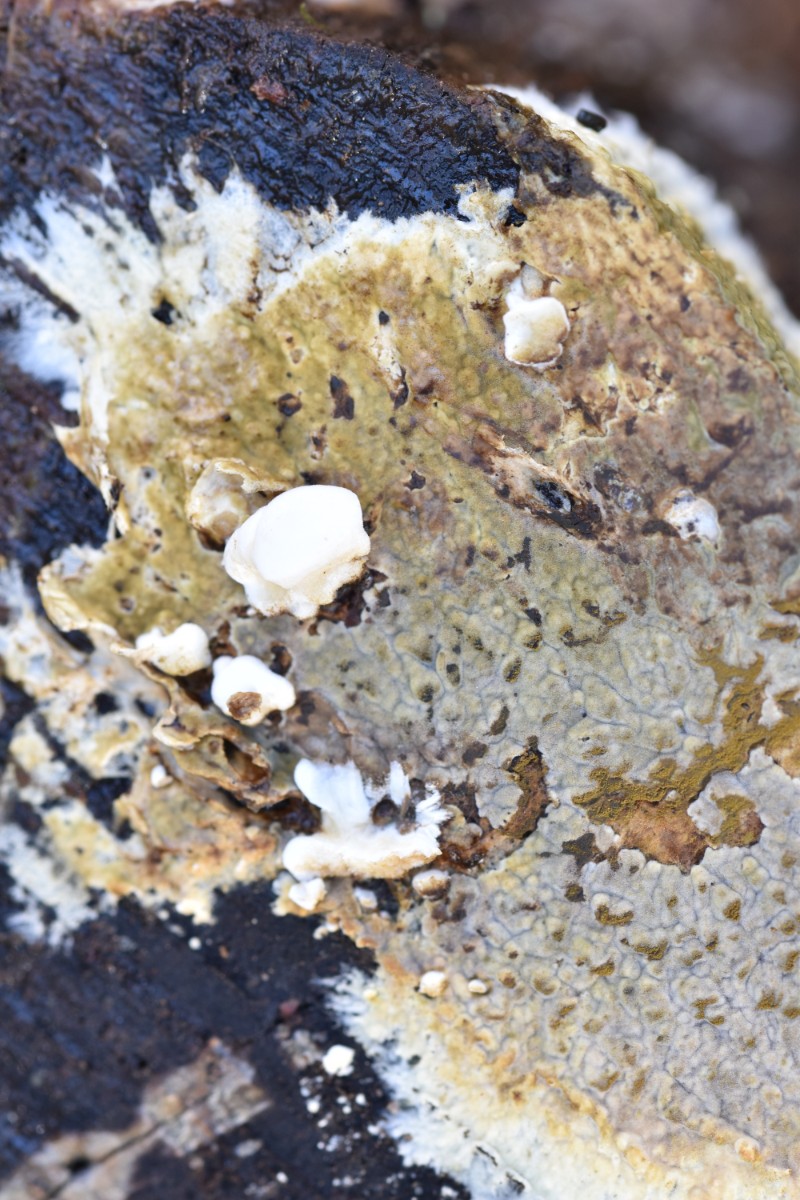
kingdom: Fungi
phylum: Basidiomycota
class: Agaricomycetes
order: Boletales
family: Coniophoraceae
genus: Coniophora
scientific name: Coniophora puteana
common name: gul tømmersvamp
